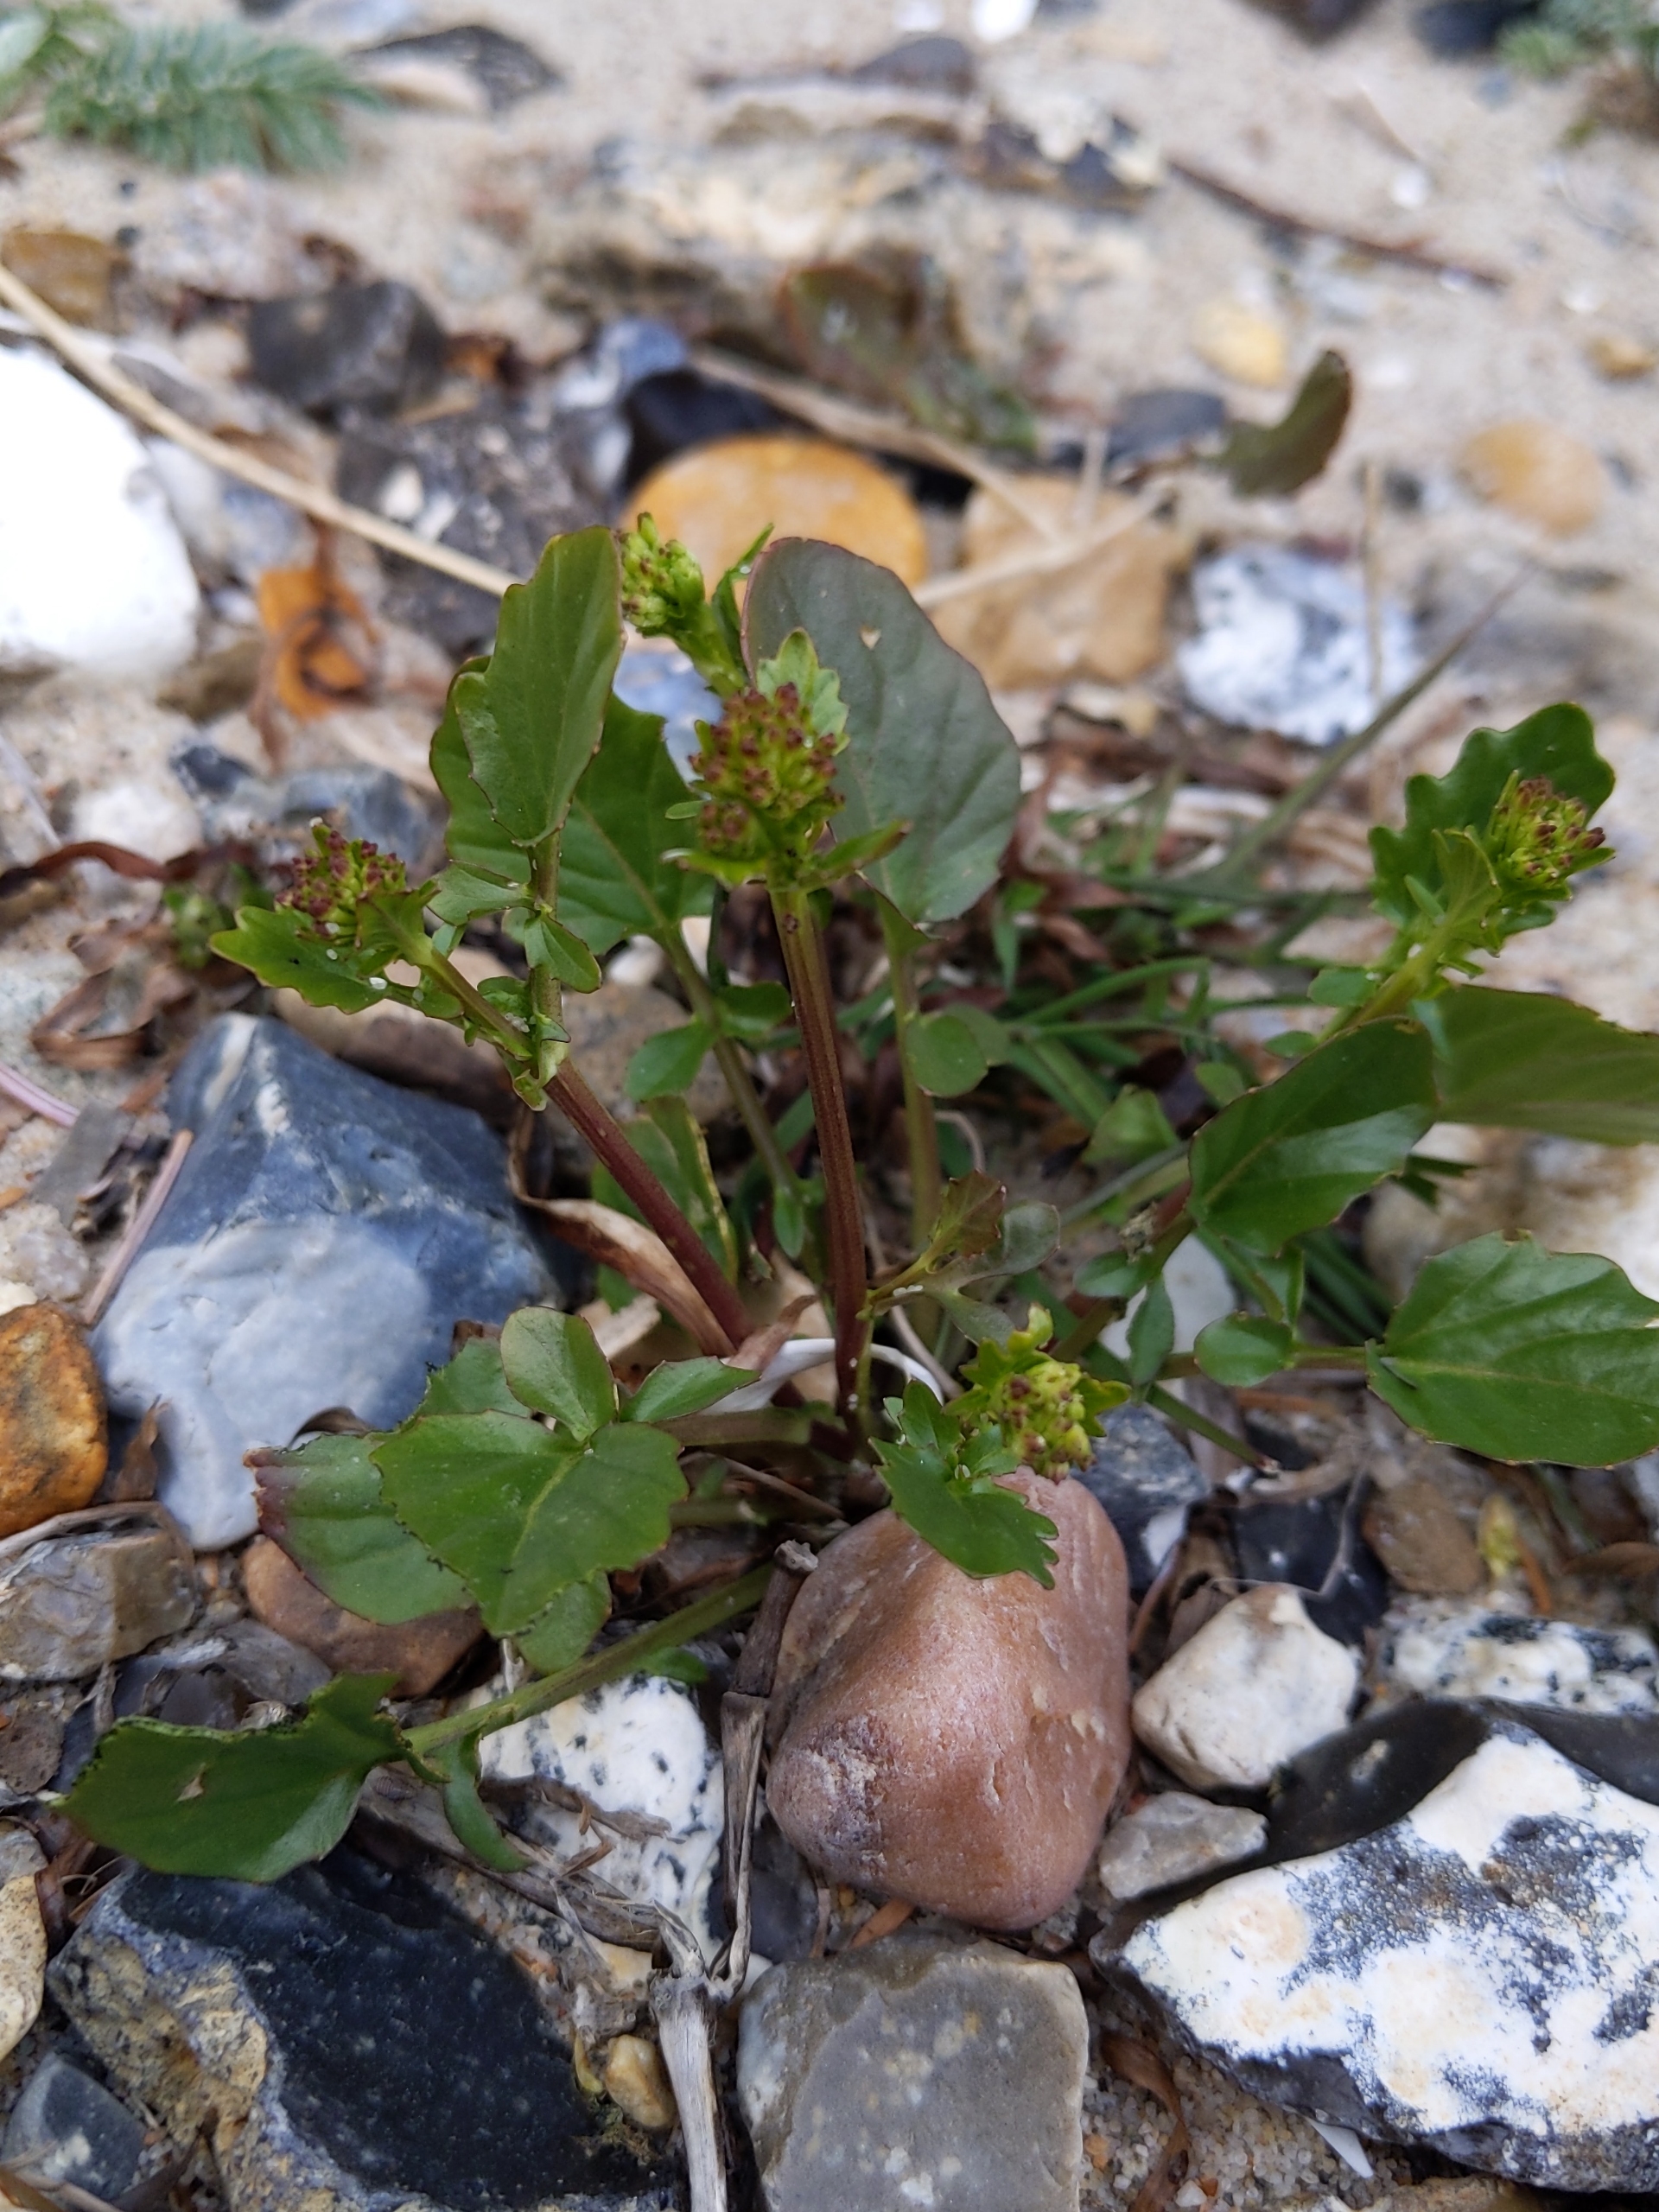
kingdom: Plantae
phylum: Tracheophyta
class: Magnoliopsida
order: Brassicales
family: Brassicaceae
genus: Barbarea
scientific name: Barbarea
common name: Vinterkarseslægten
